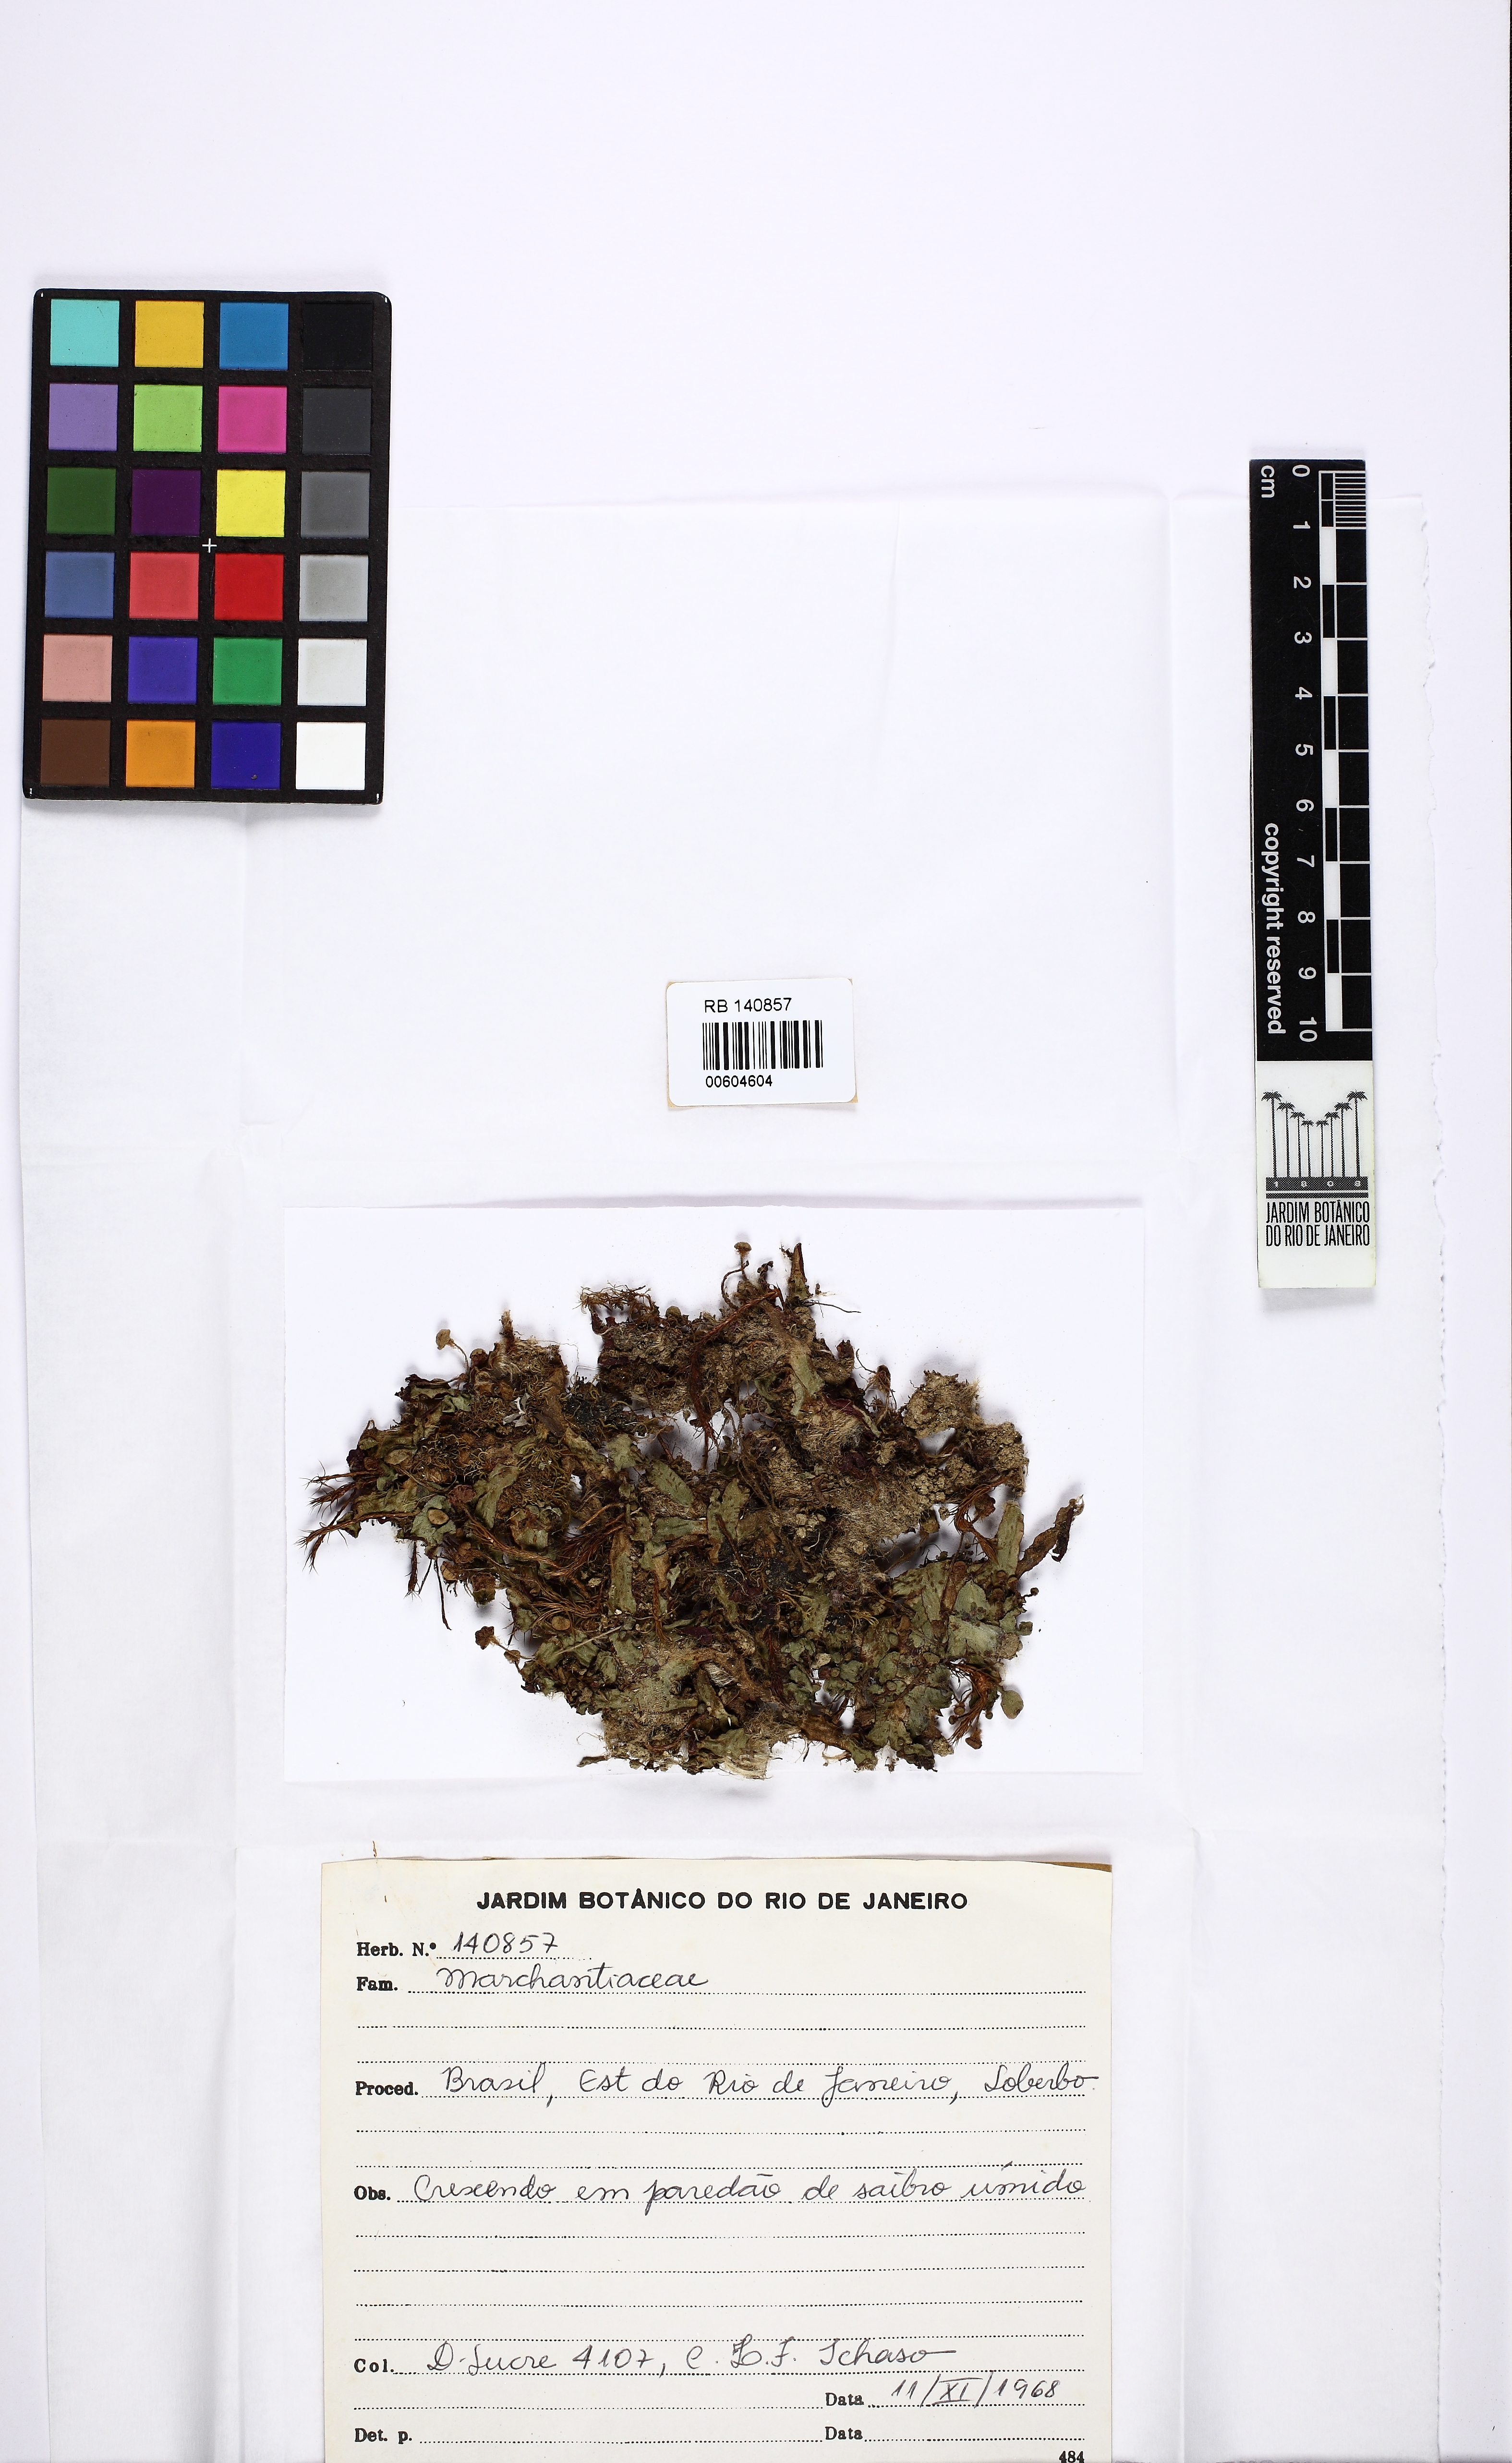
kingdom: Plantae
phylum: Marchantiophyta
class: Marchantiopsida
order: Marchantiales
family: Marchantiaceae
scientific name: Marchantiaceae
